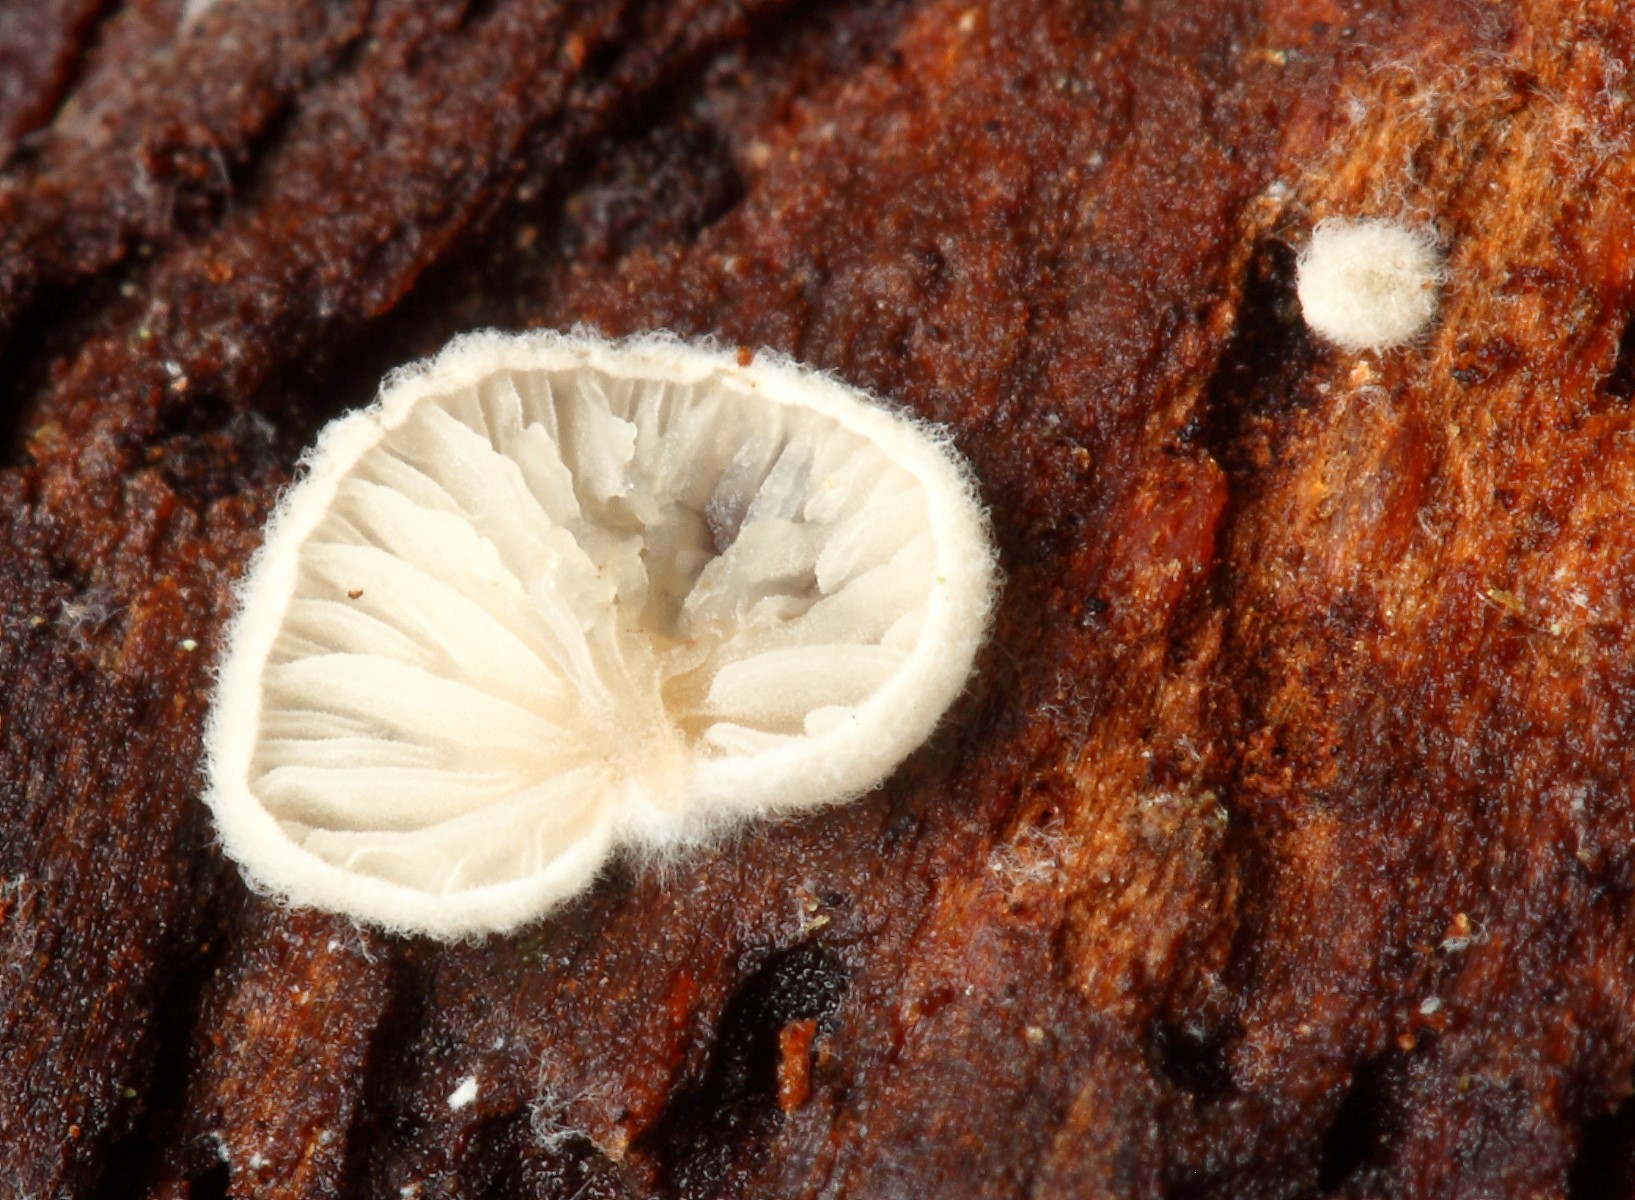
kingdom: Fungi
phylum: Basidiomycota
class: Agaricomycetes
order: Agaricales
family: Entolomataceae
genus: Clitopilus
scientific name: Clitopilus hobsonii
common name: Miller's oysterling
